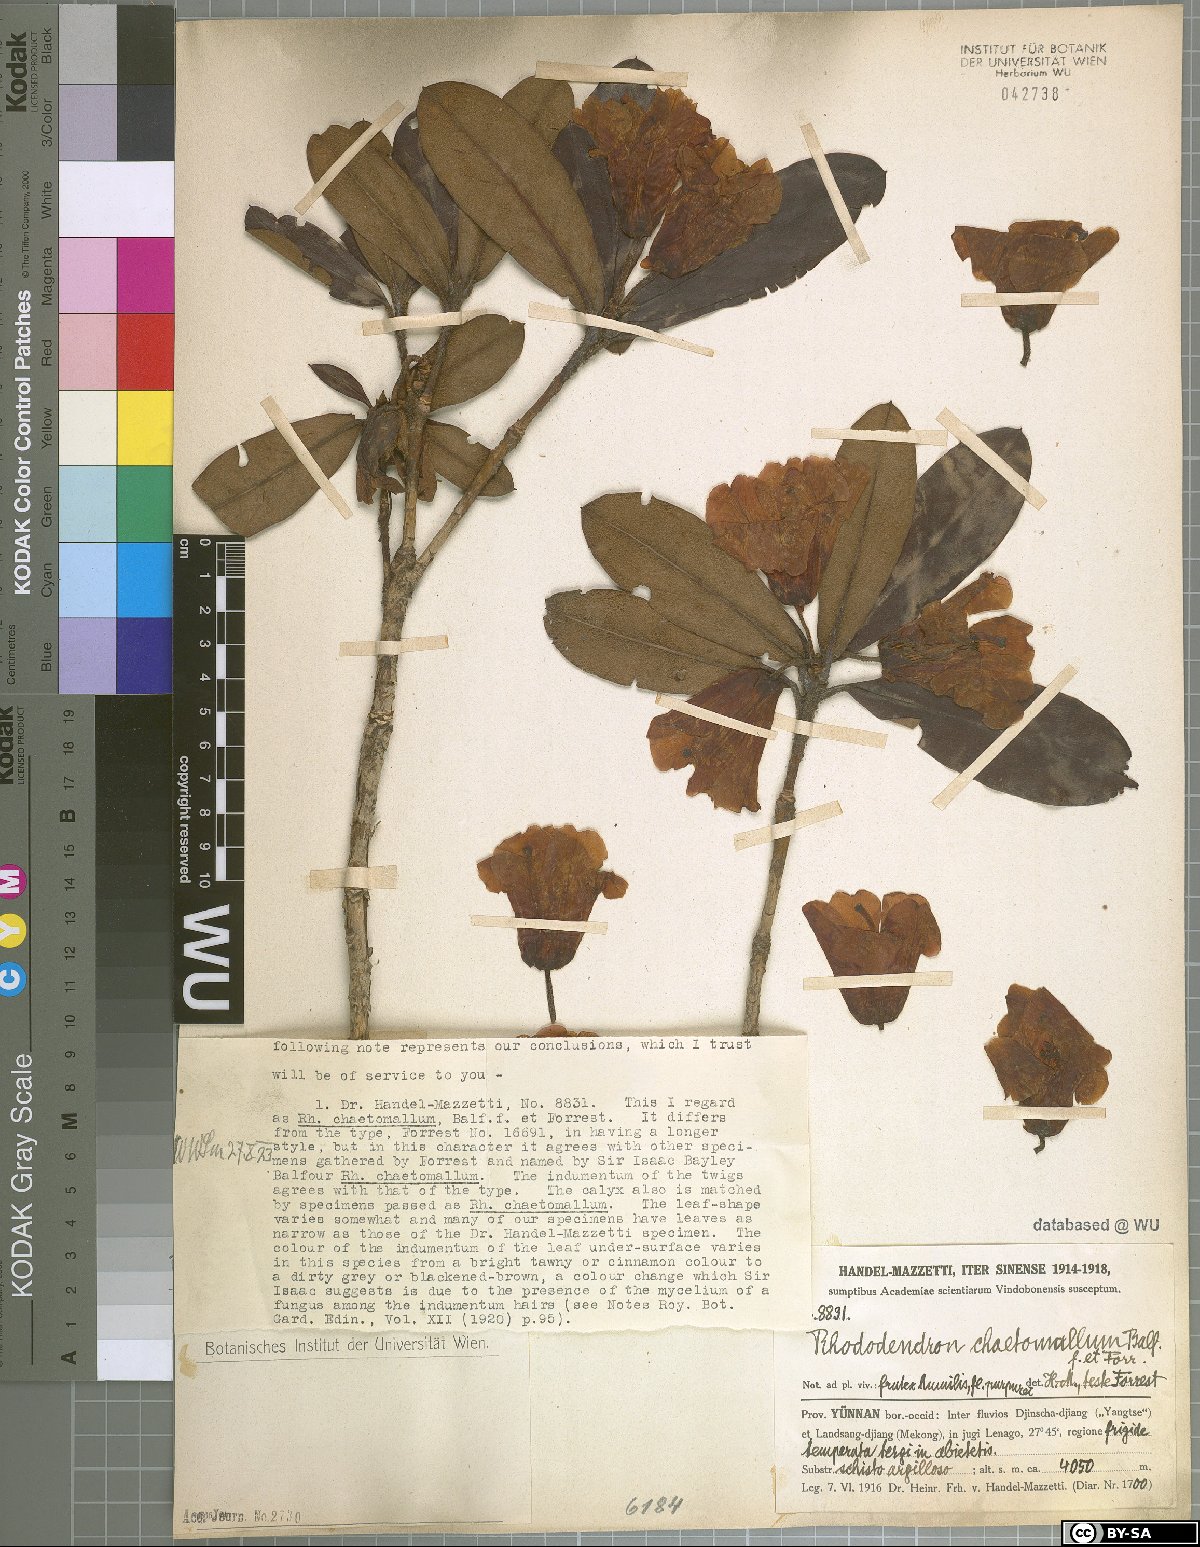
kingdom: Plantae
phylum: Tracheophyta
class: Magnoliopsida
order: Ericales
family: Ericaceae
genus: Rhododendron
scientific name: Rhododendron haematodes
